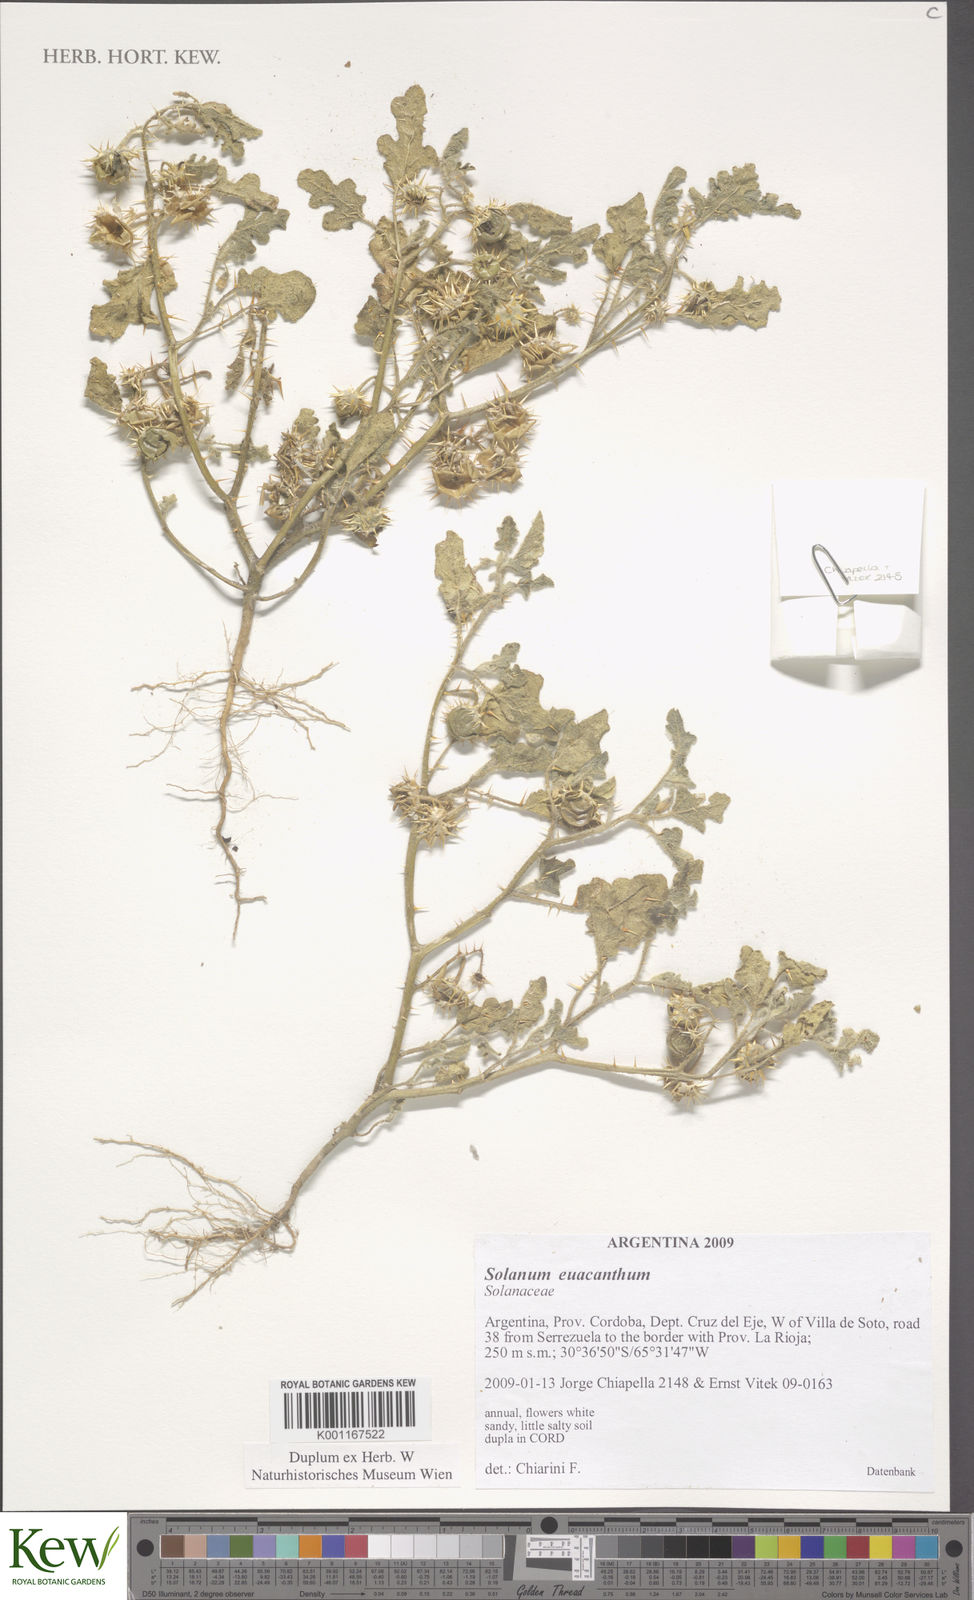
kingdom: Plantae
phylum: Tracheophyta
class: Magnoliopsida
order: Solanales
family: Solanaceae
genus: Solanum
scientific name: Solanum euacanthum
